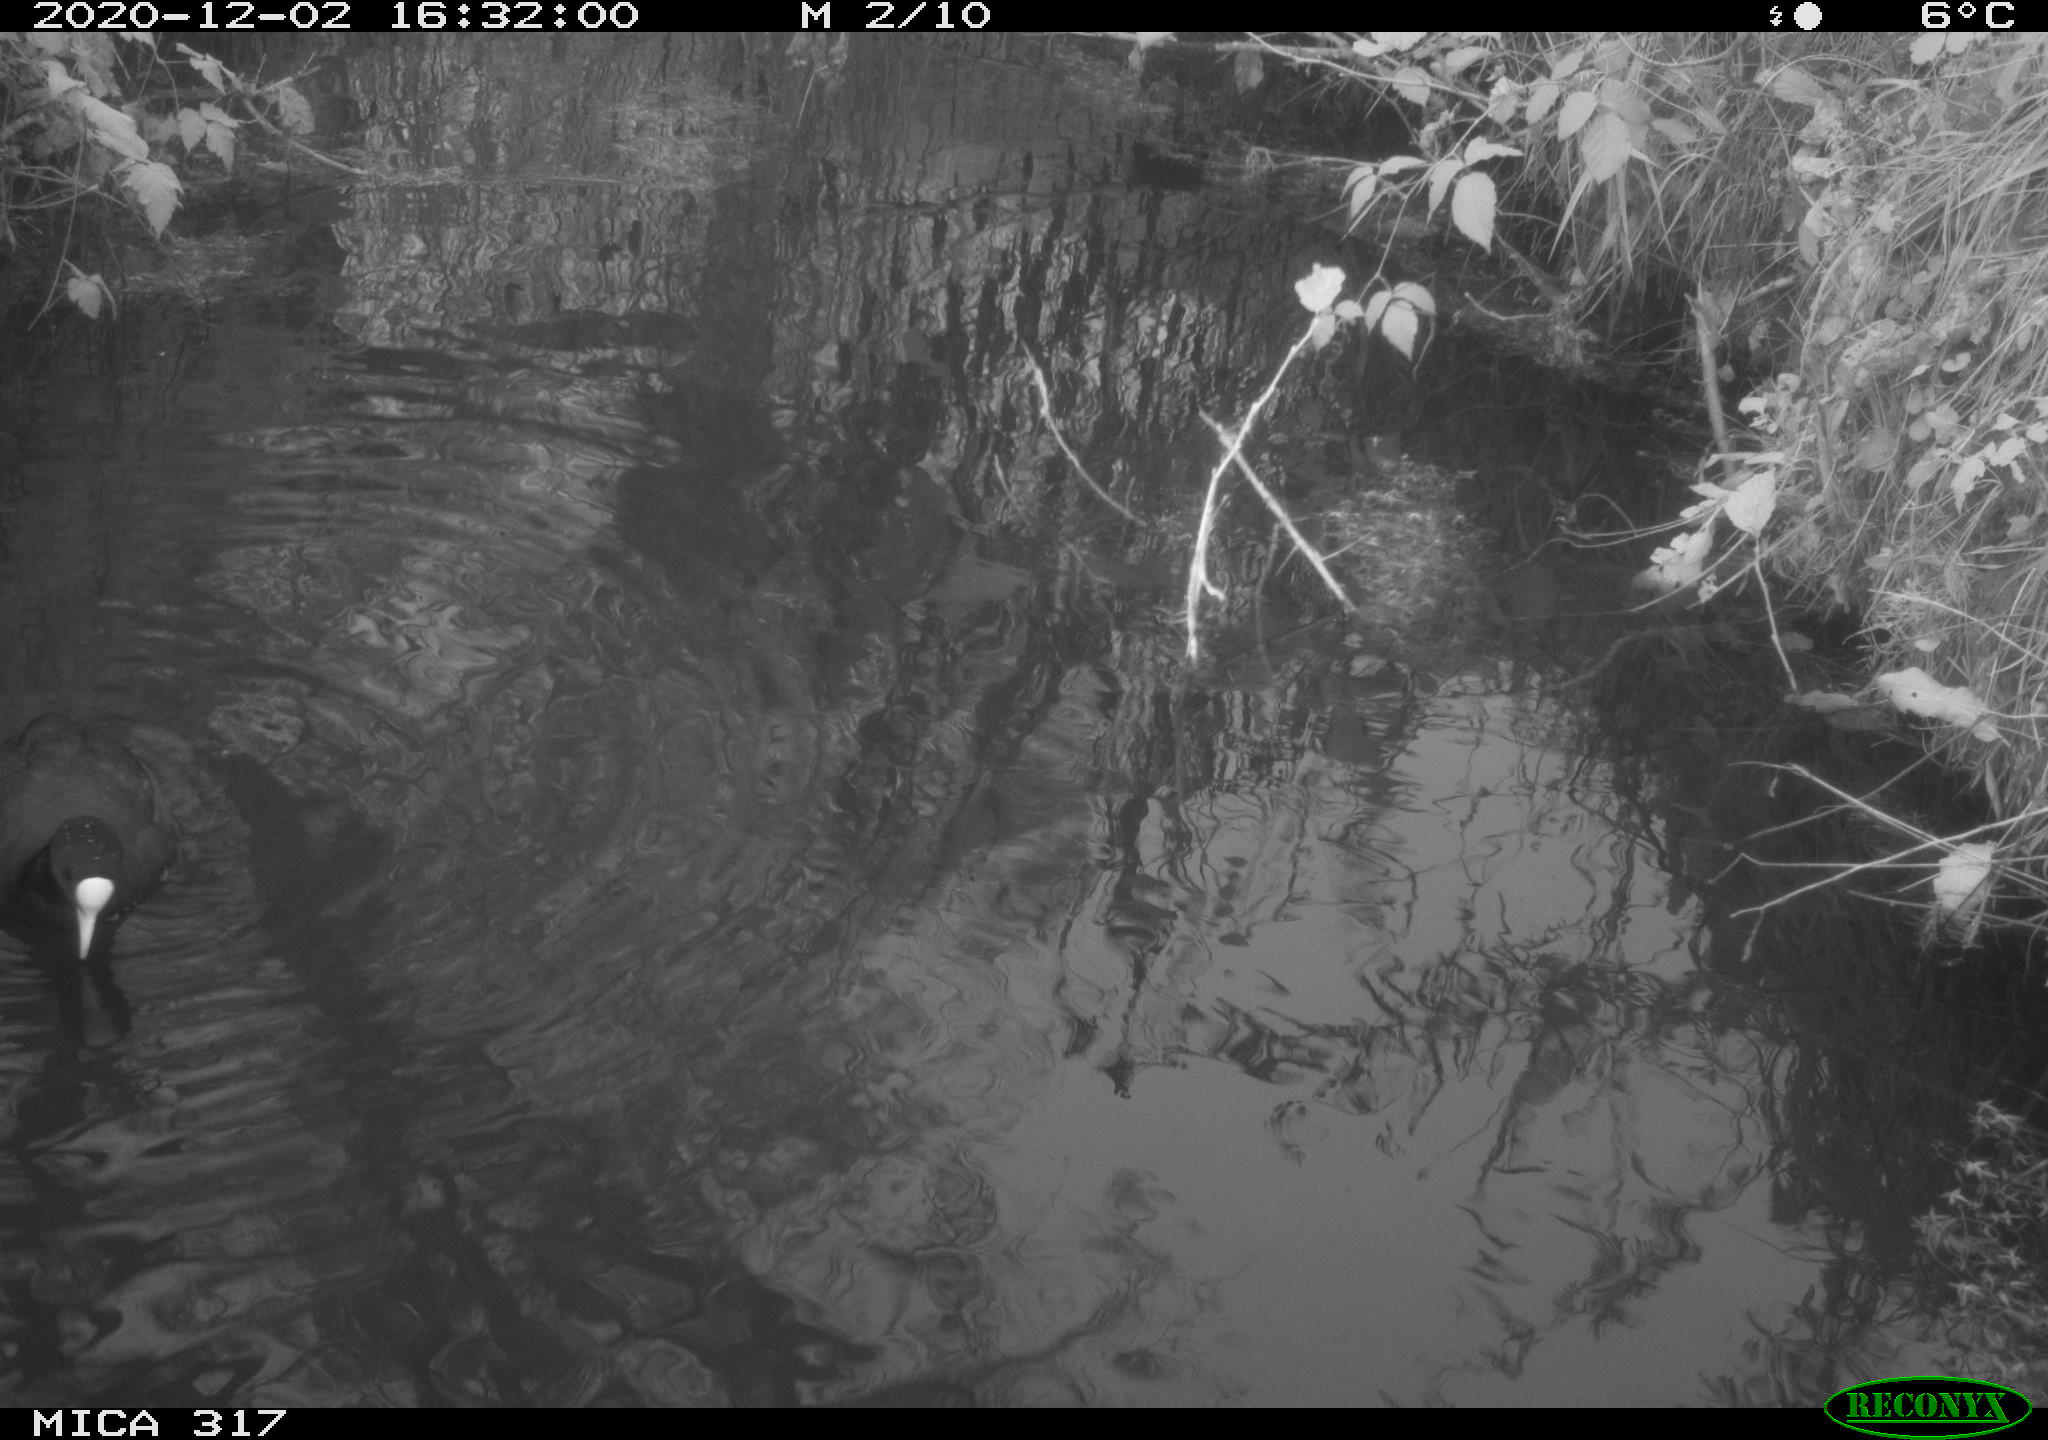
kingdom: Animalia
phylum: Chordata
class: Aves
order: Gruiformes
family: Rallidae
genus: Fulica
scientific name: Fulica atra
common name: Eurasian coot
